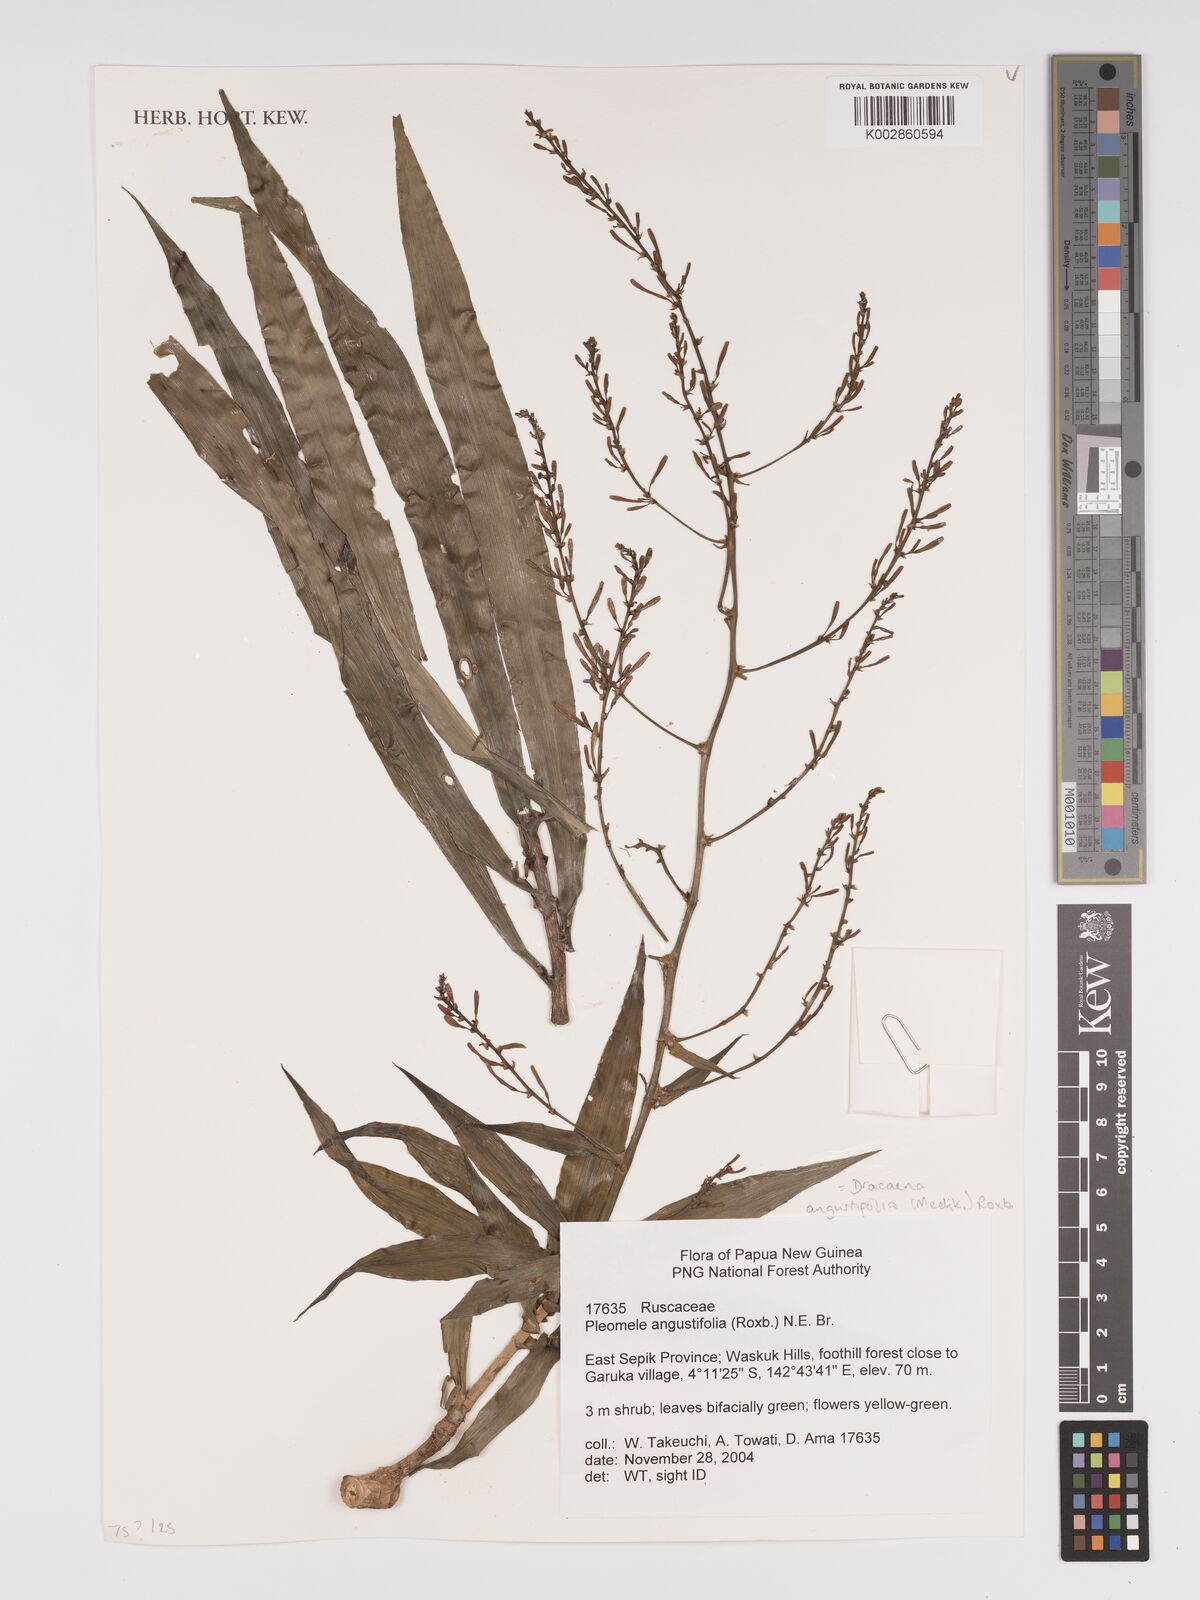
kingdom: Plantae
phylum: Tracheophyta
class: Liliopsida
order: Asparagales
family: Asparagaceae
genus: Dracaena
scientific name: Dracaena angustifolia
